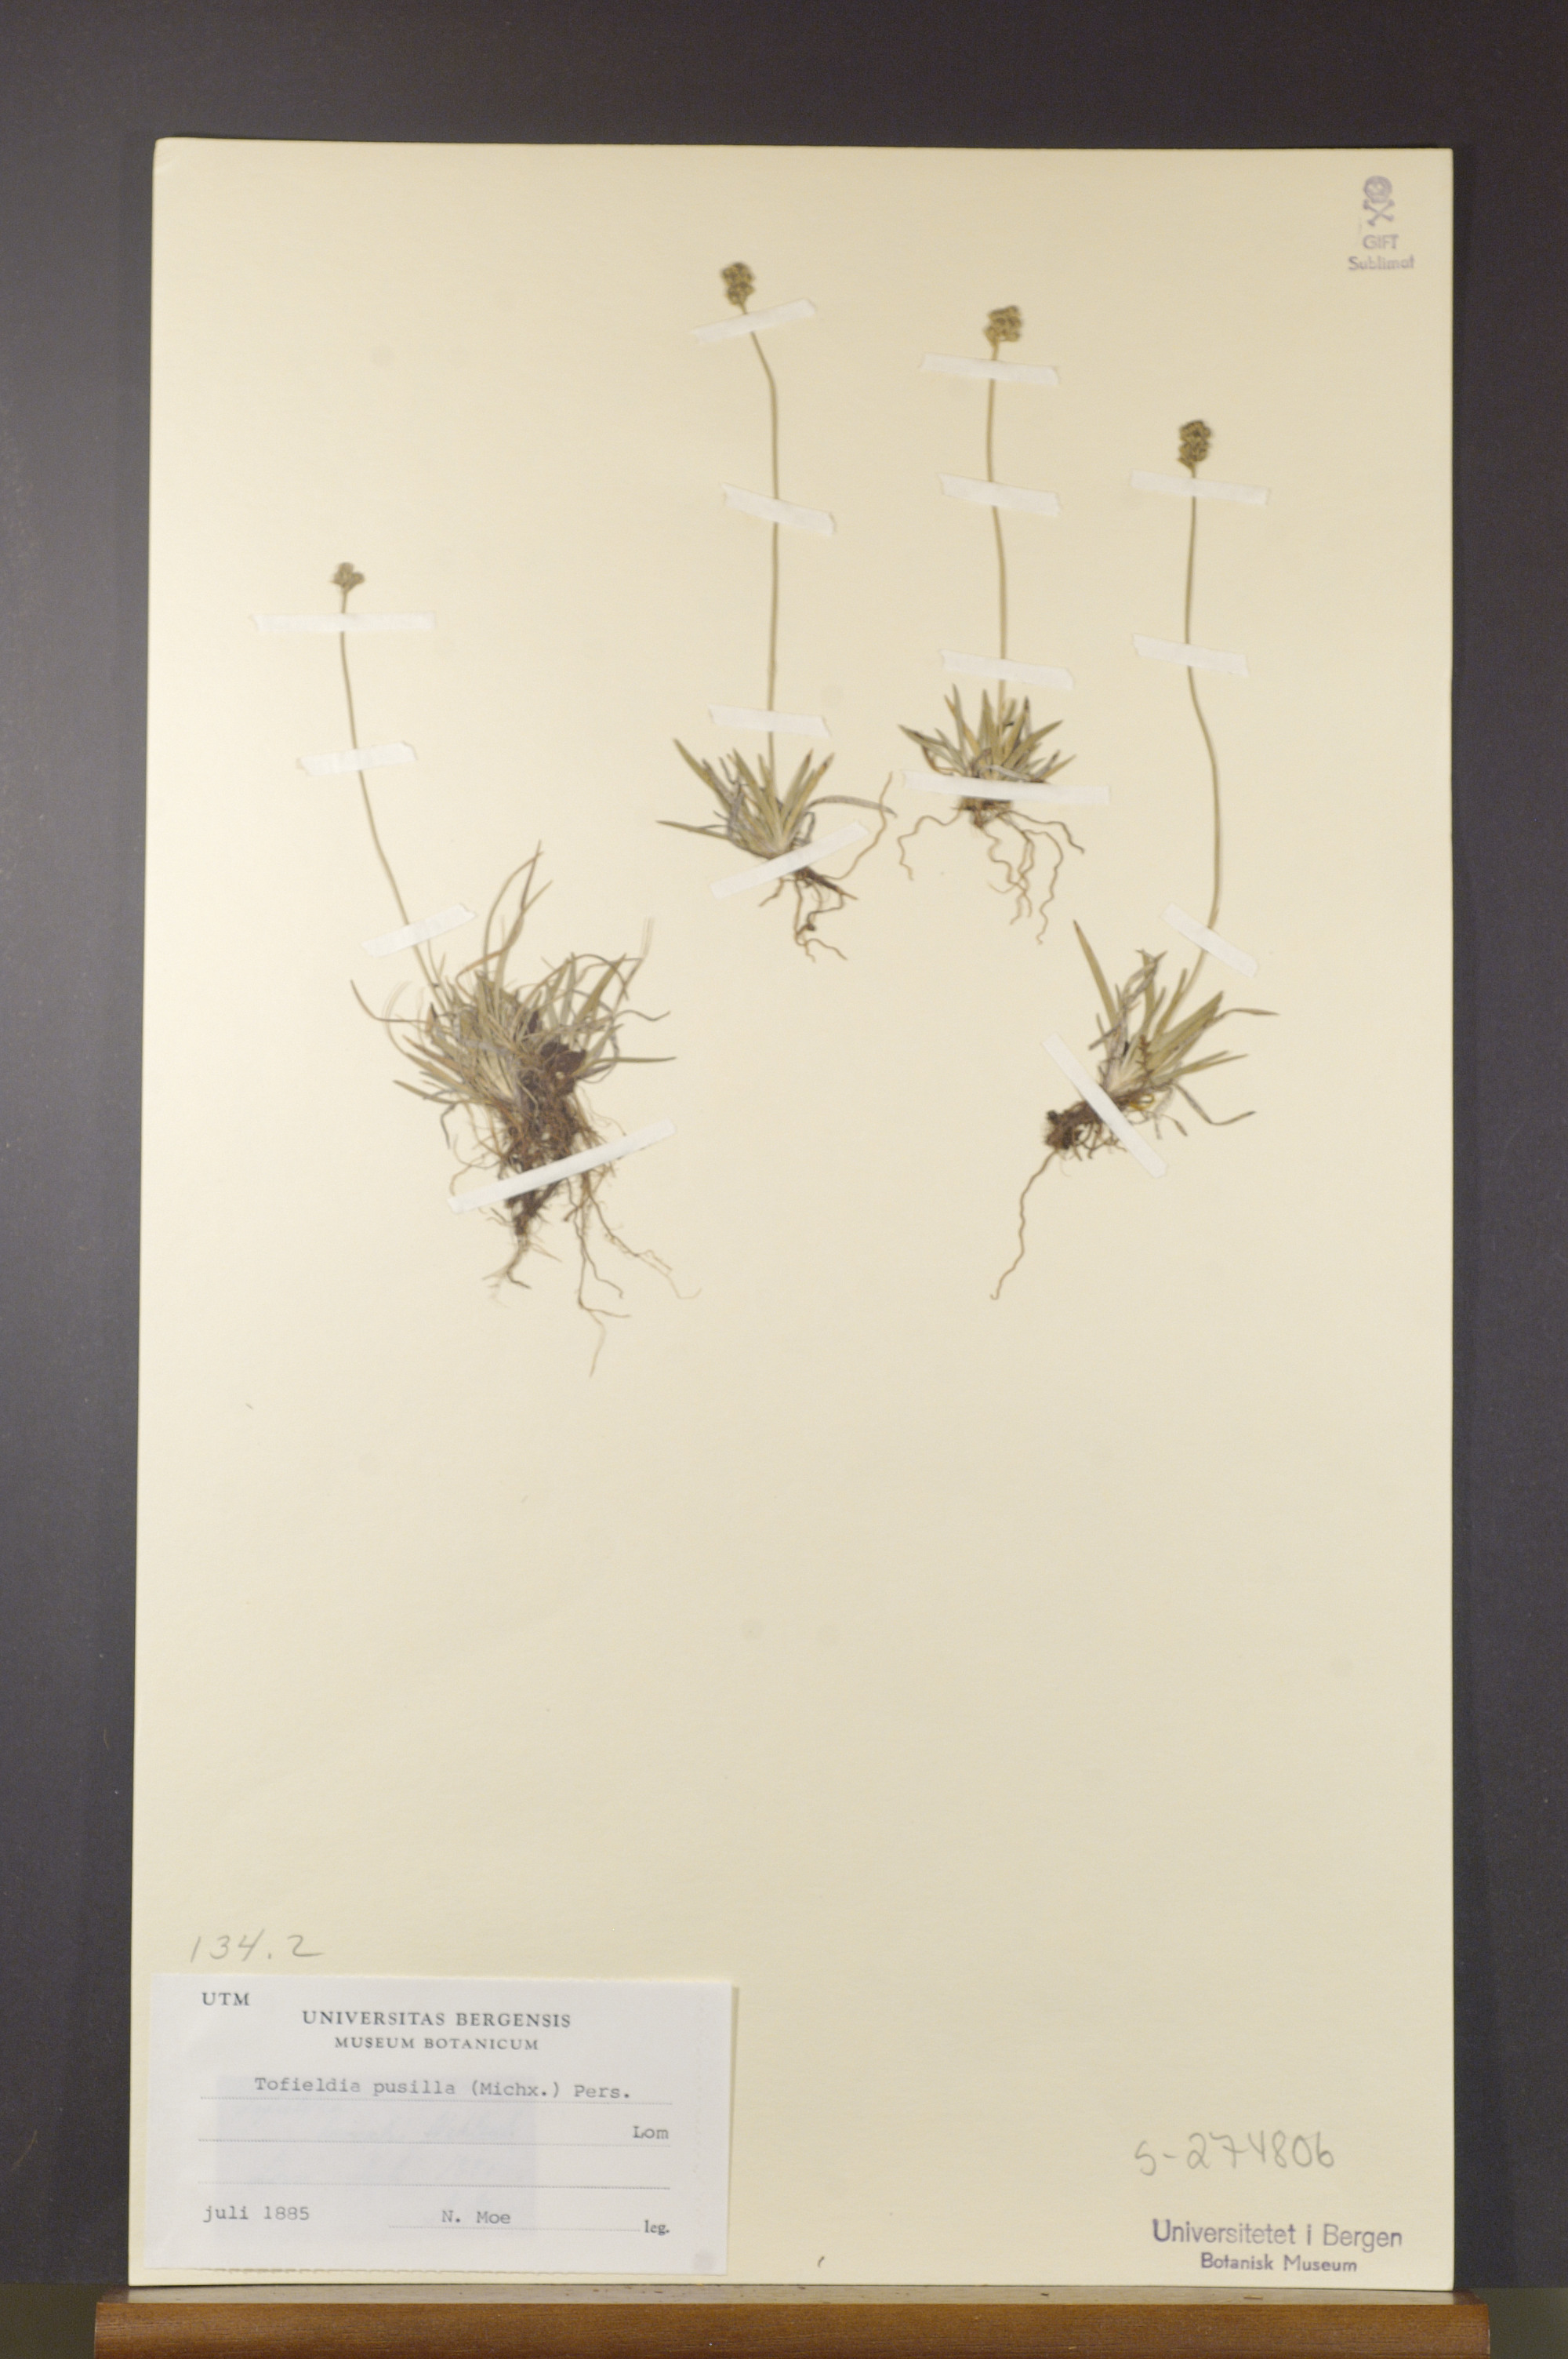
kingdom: Plantae
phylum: Tracheophyta
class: Liliopsida
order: Alismatales
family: Tofieldiaceae
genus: Tofieldia
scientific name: Tofieldia pusilla
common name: Scottish false asphodel
